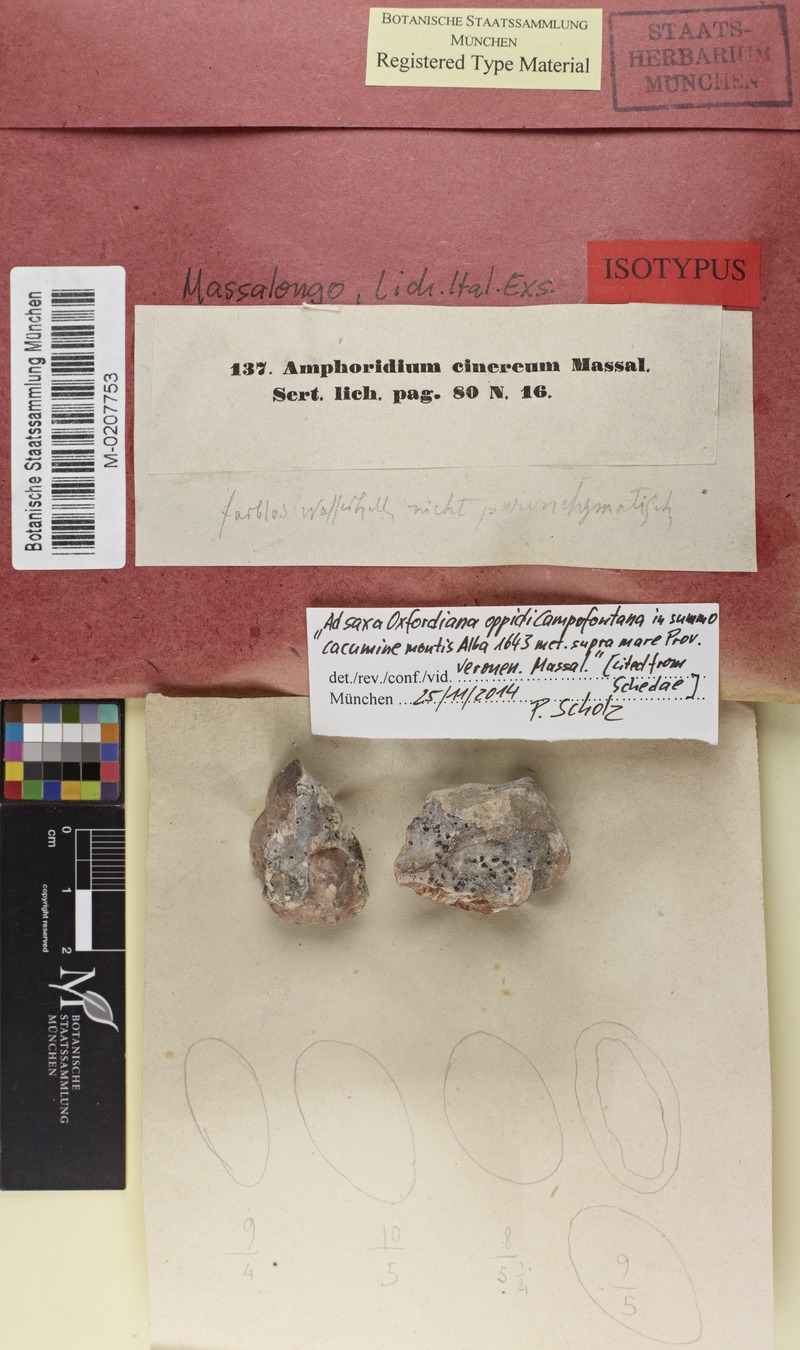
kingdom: Fungi
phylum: Ascomycota
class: Eurotiomycetes
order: Verrucariales
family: Verrucariaceae
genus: Polyblastia
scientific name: Polyblastia cinerea
